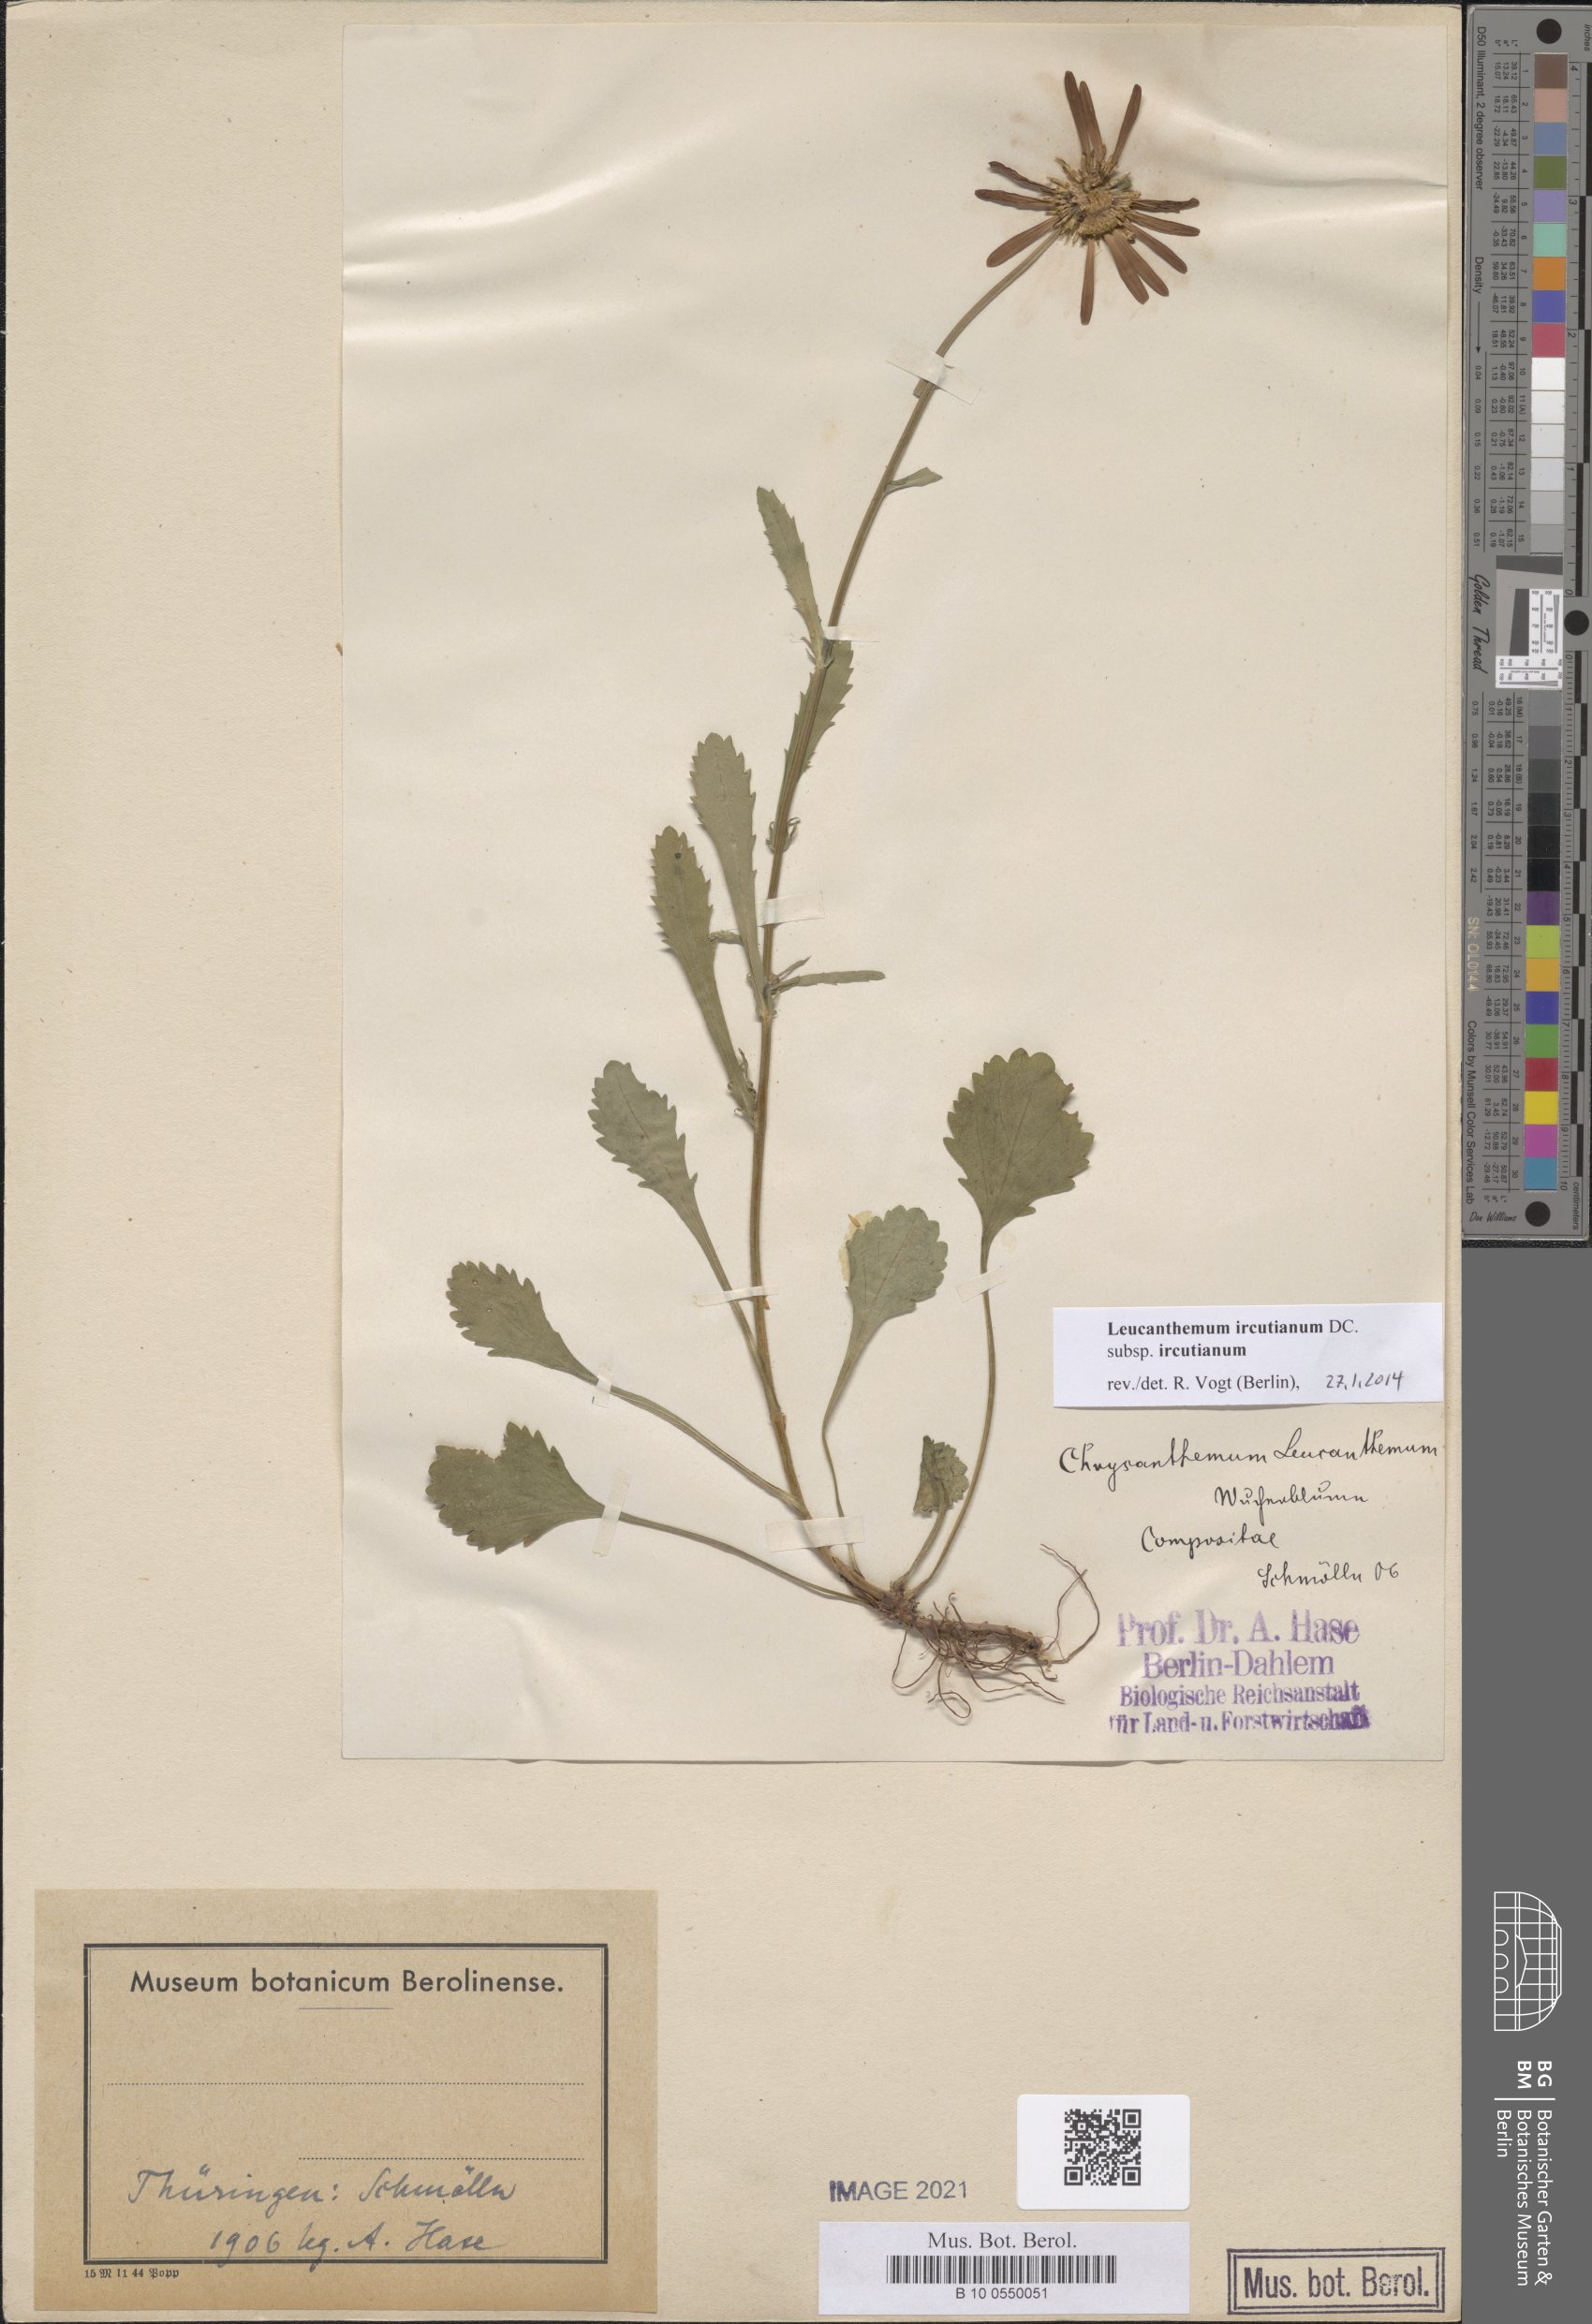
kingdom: Plantae
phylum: Tracheophyta
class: Magnoliopsida
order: Asterales
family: Asteraceae
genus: Leucanthemum
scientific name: Leucanthemum ircutianum
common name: Daisy
